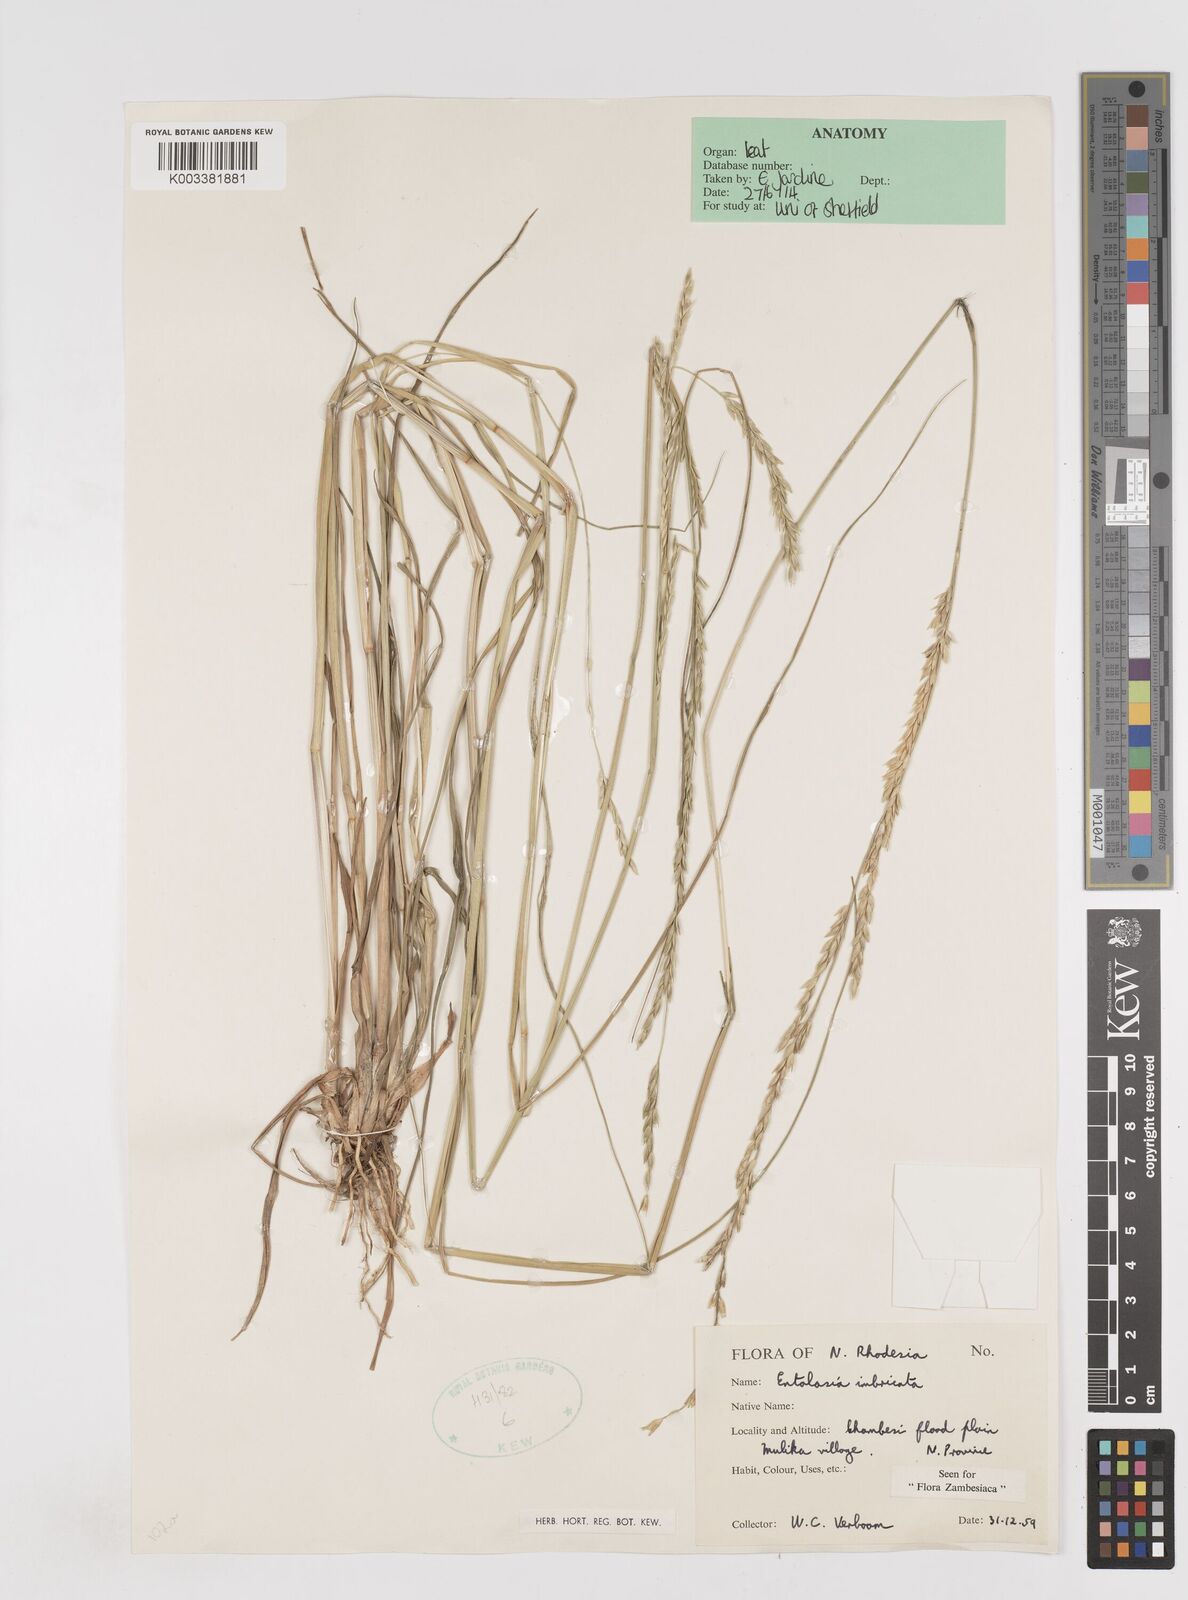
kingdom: Plantae
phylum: Tracheophyta
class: Liliopsida
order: Poales
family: Poaceae
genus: Entolasia
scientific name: Entolasia imbricata
